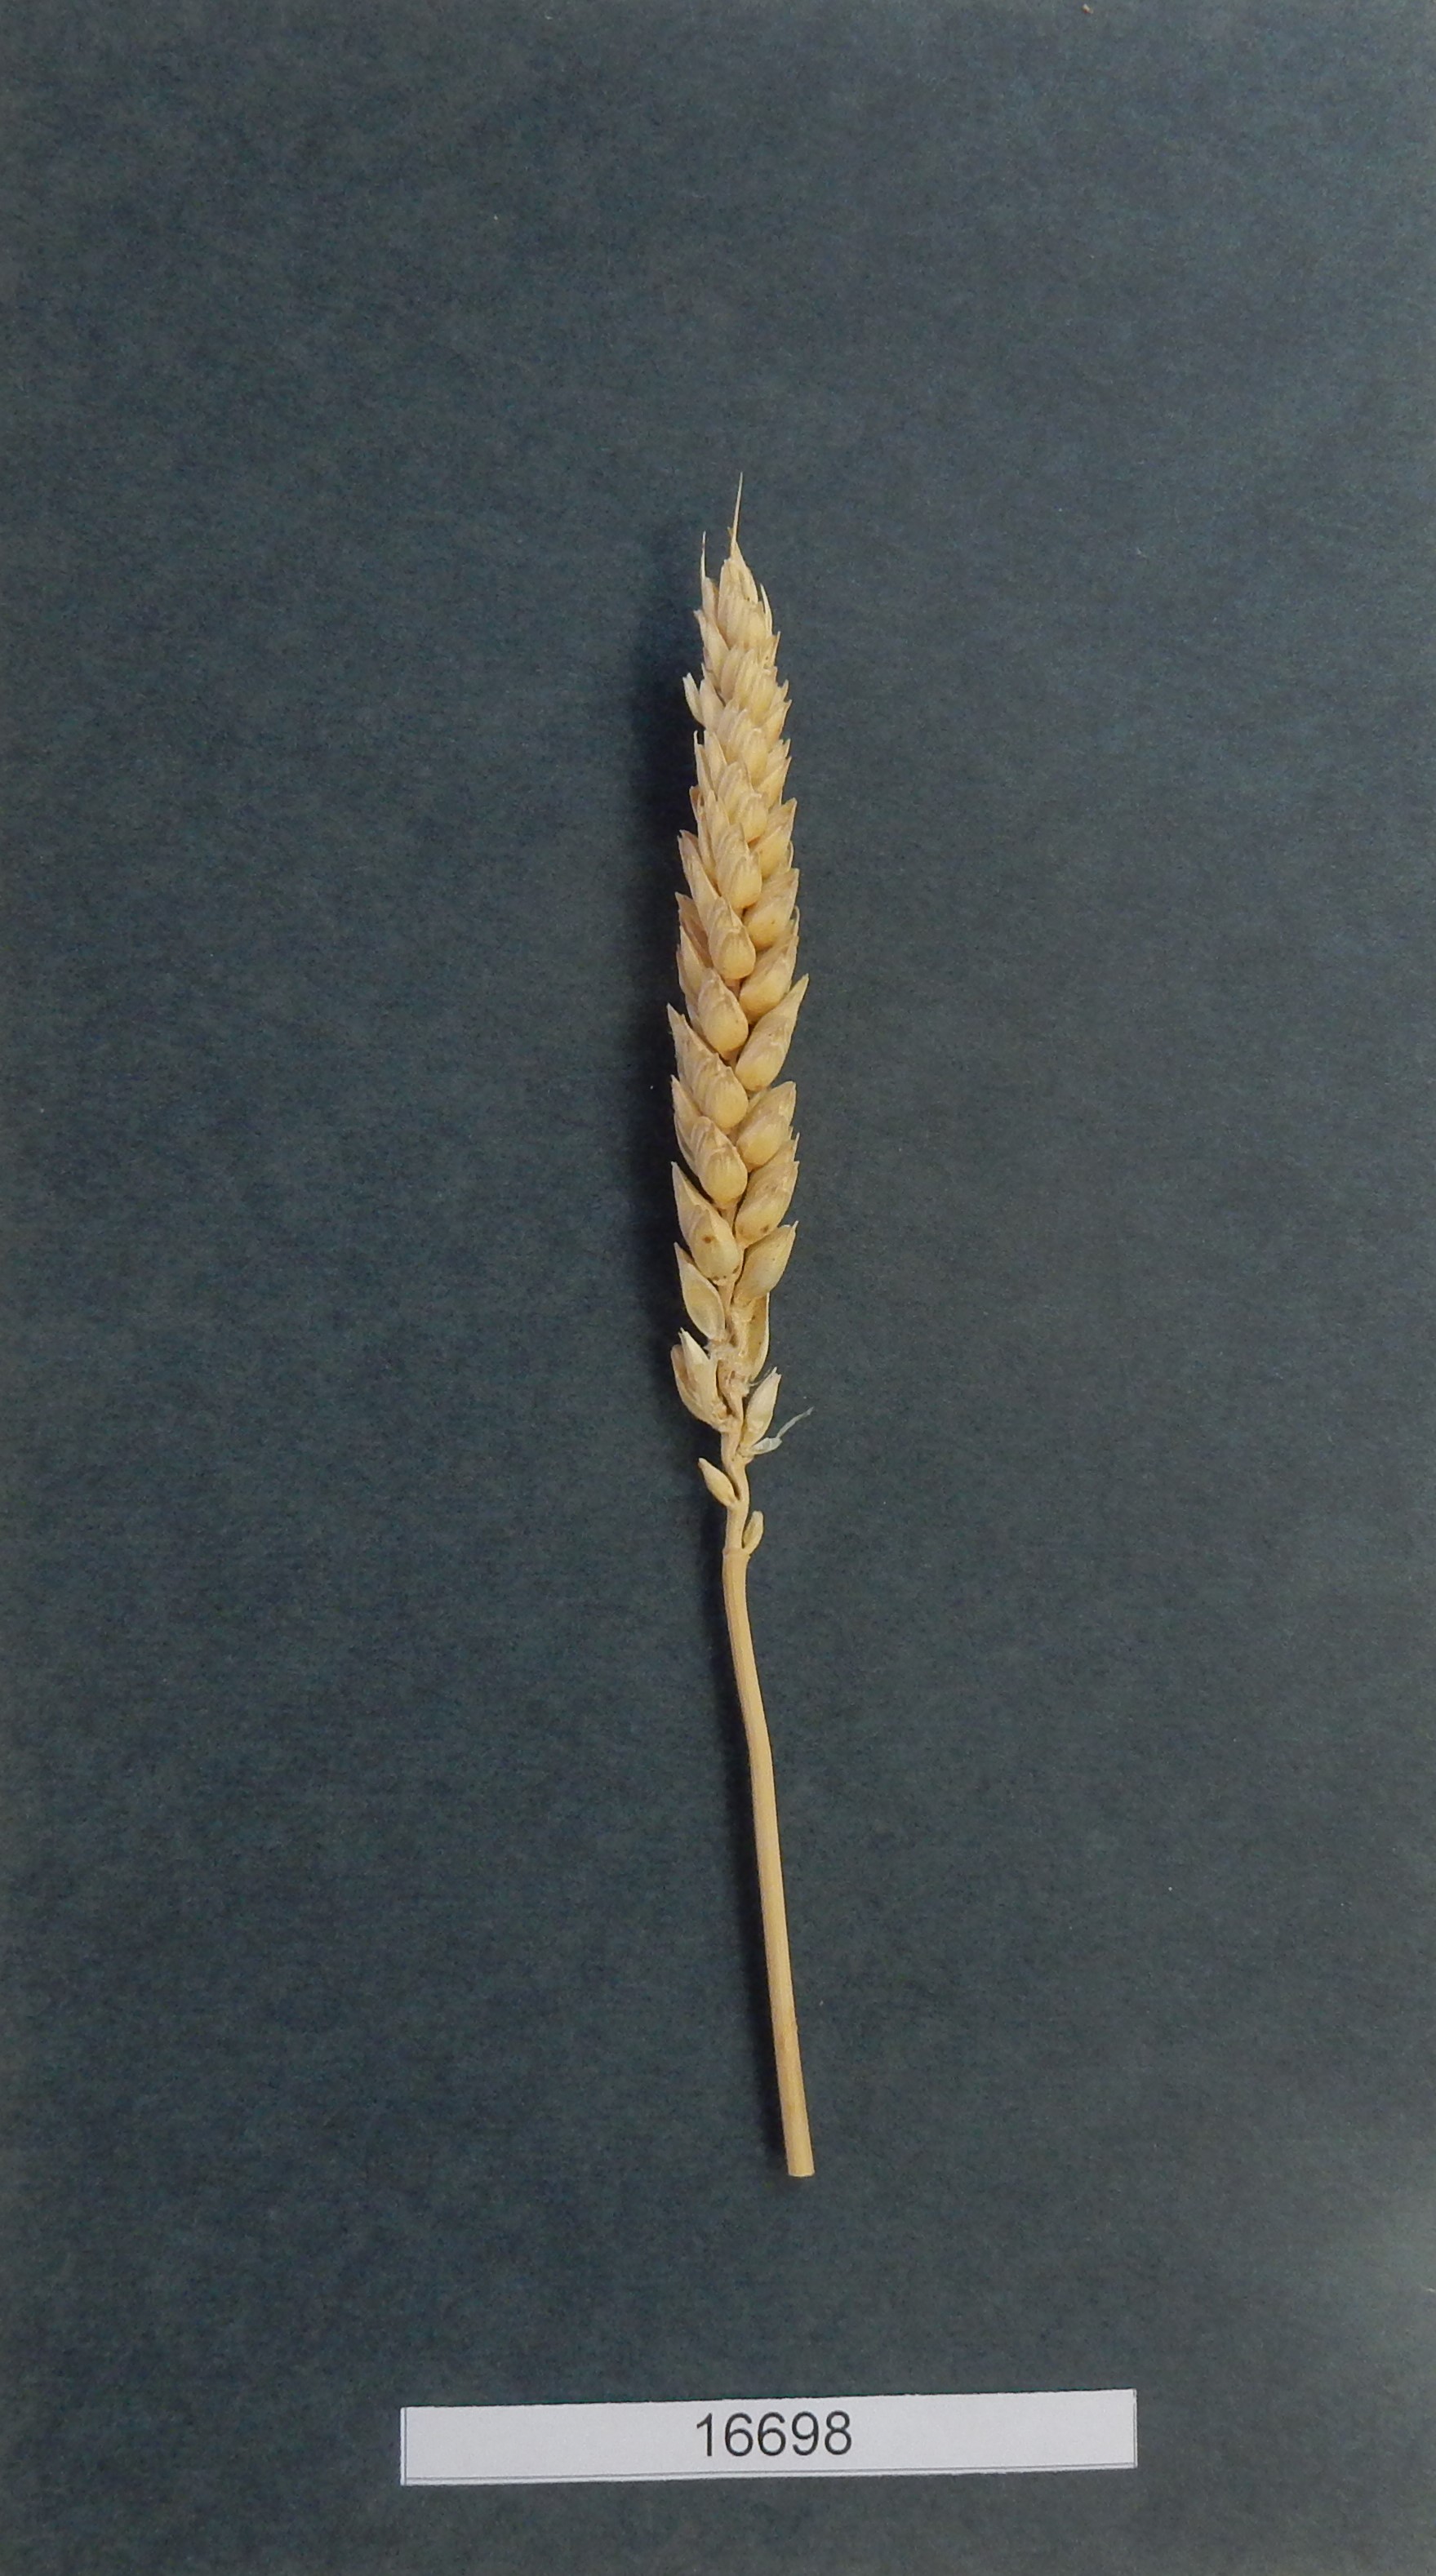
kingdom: Plantae
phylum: Tracheophyta
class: Liliopsida
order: Poales
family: Poaceae
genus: Triticum
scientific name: Triticum
